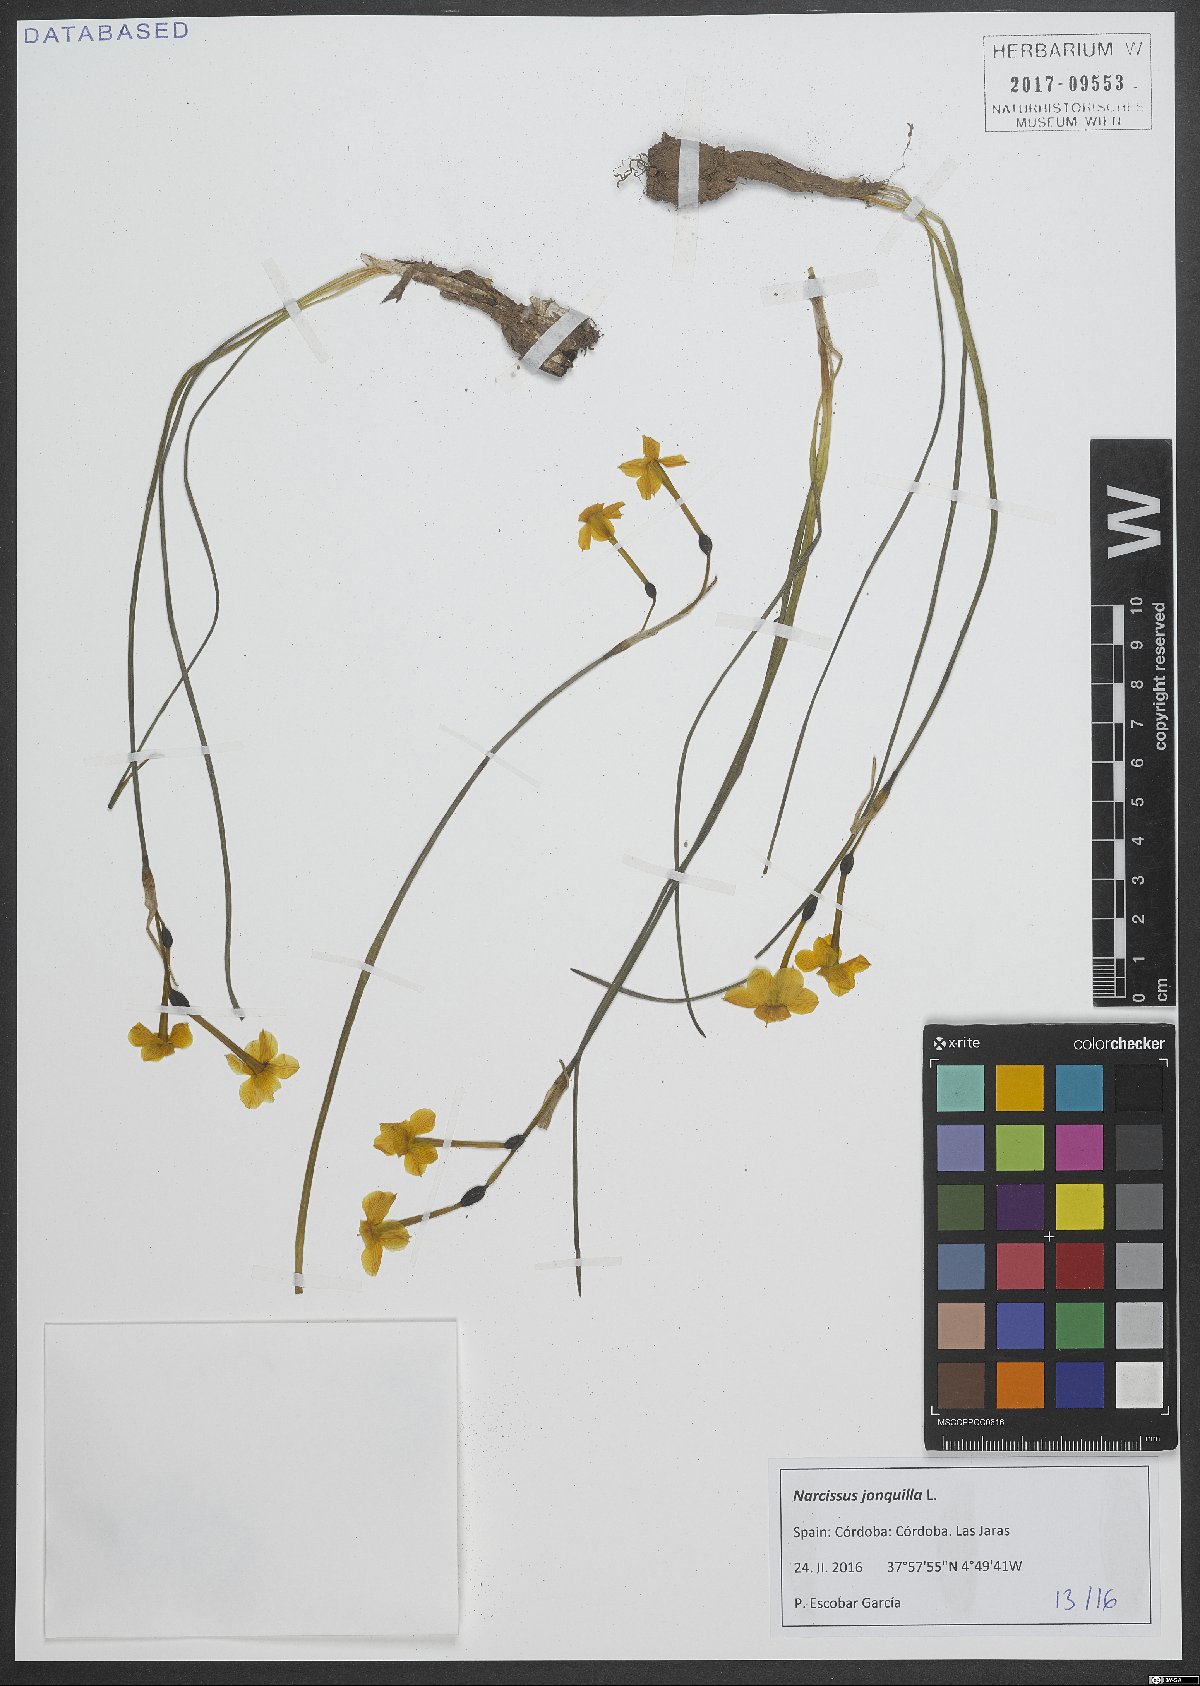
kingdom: Plantae
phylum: Tracheophyta
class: Liliopsida
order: Asparagales
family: Amaryllidaceae
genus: Narcissus
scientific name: Narcissus jonquilla
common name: Jonquil
